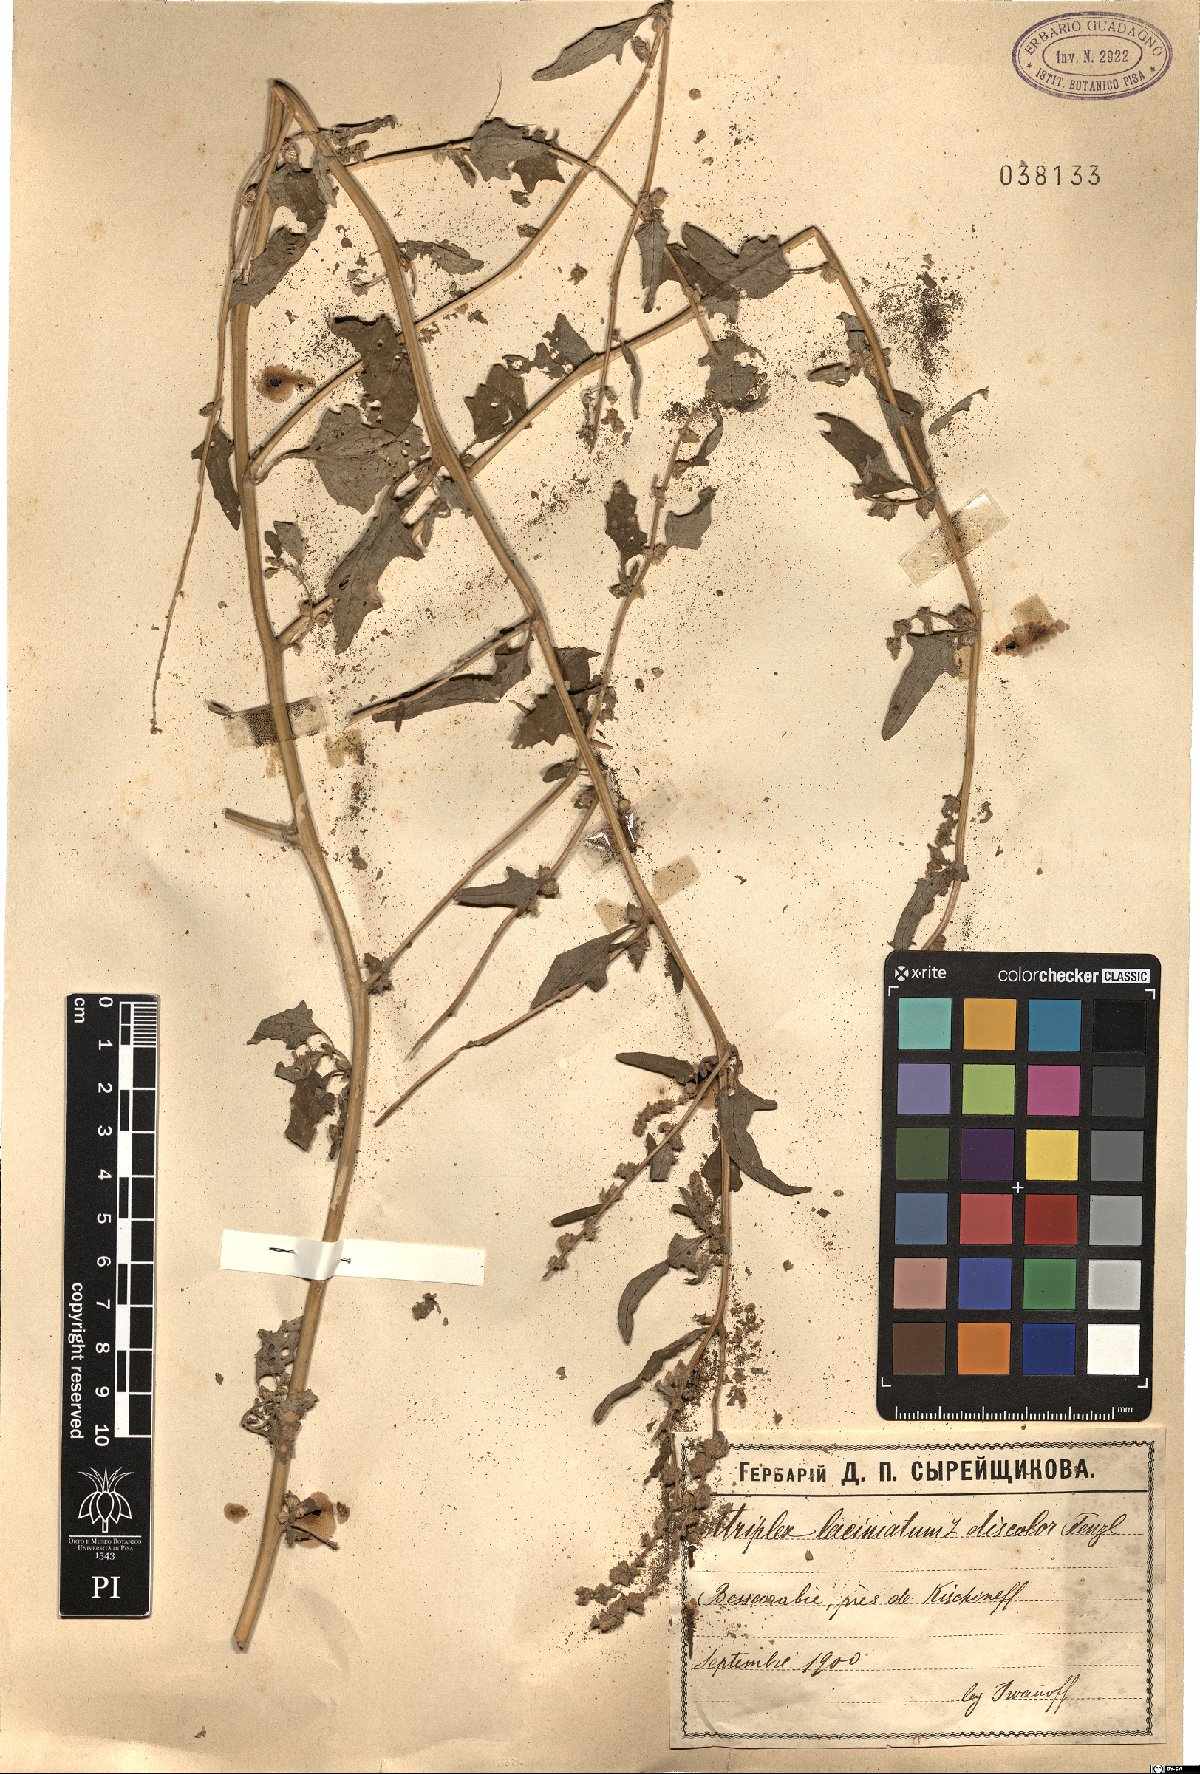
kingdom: Plantae
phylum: Tracheophyta
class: Magnoliopsida
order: Caryophyllales
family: Amaranthaceae
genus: Atriplex
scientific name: Atriplex tatarica
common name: Tatarian orache
